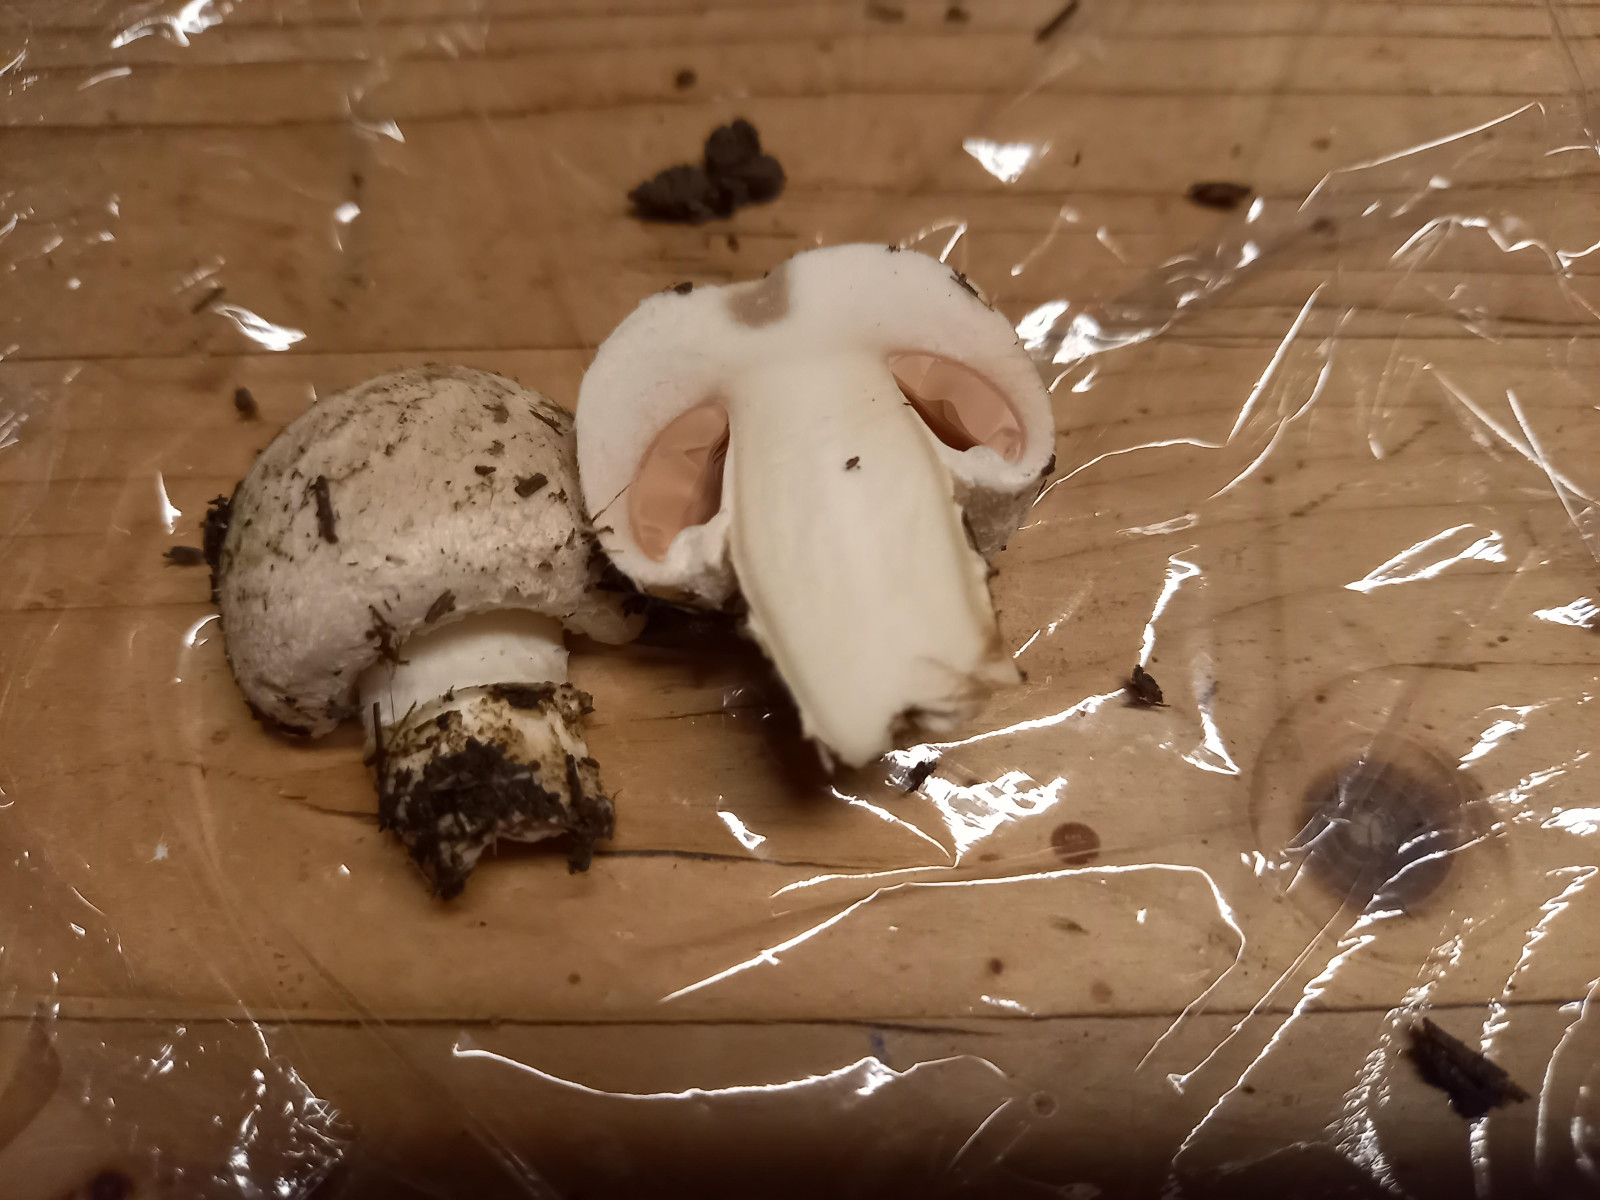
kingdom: Fungi
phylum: Basidiomycota
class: Agaricomycetes
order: Agaricales
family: Agaricaceae
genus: Agaricus
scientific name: Agaricus
